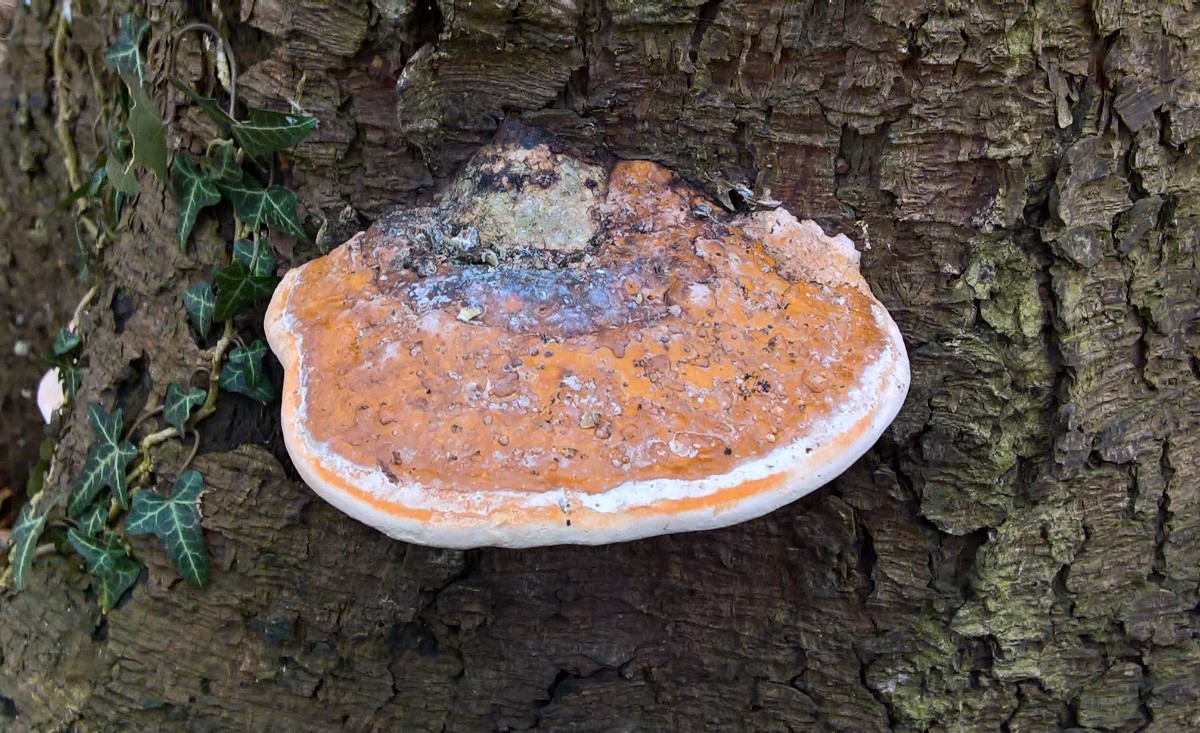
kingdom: Fungi
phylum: Basidiomycota
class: Agaricomycetes
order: Polyporales
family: Fomitopsidaceae
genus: Fomitopsis
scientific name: Fomitopsis pinicola
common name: randbæltet hovporesvamp
